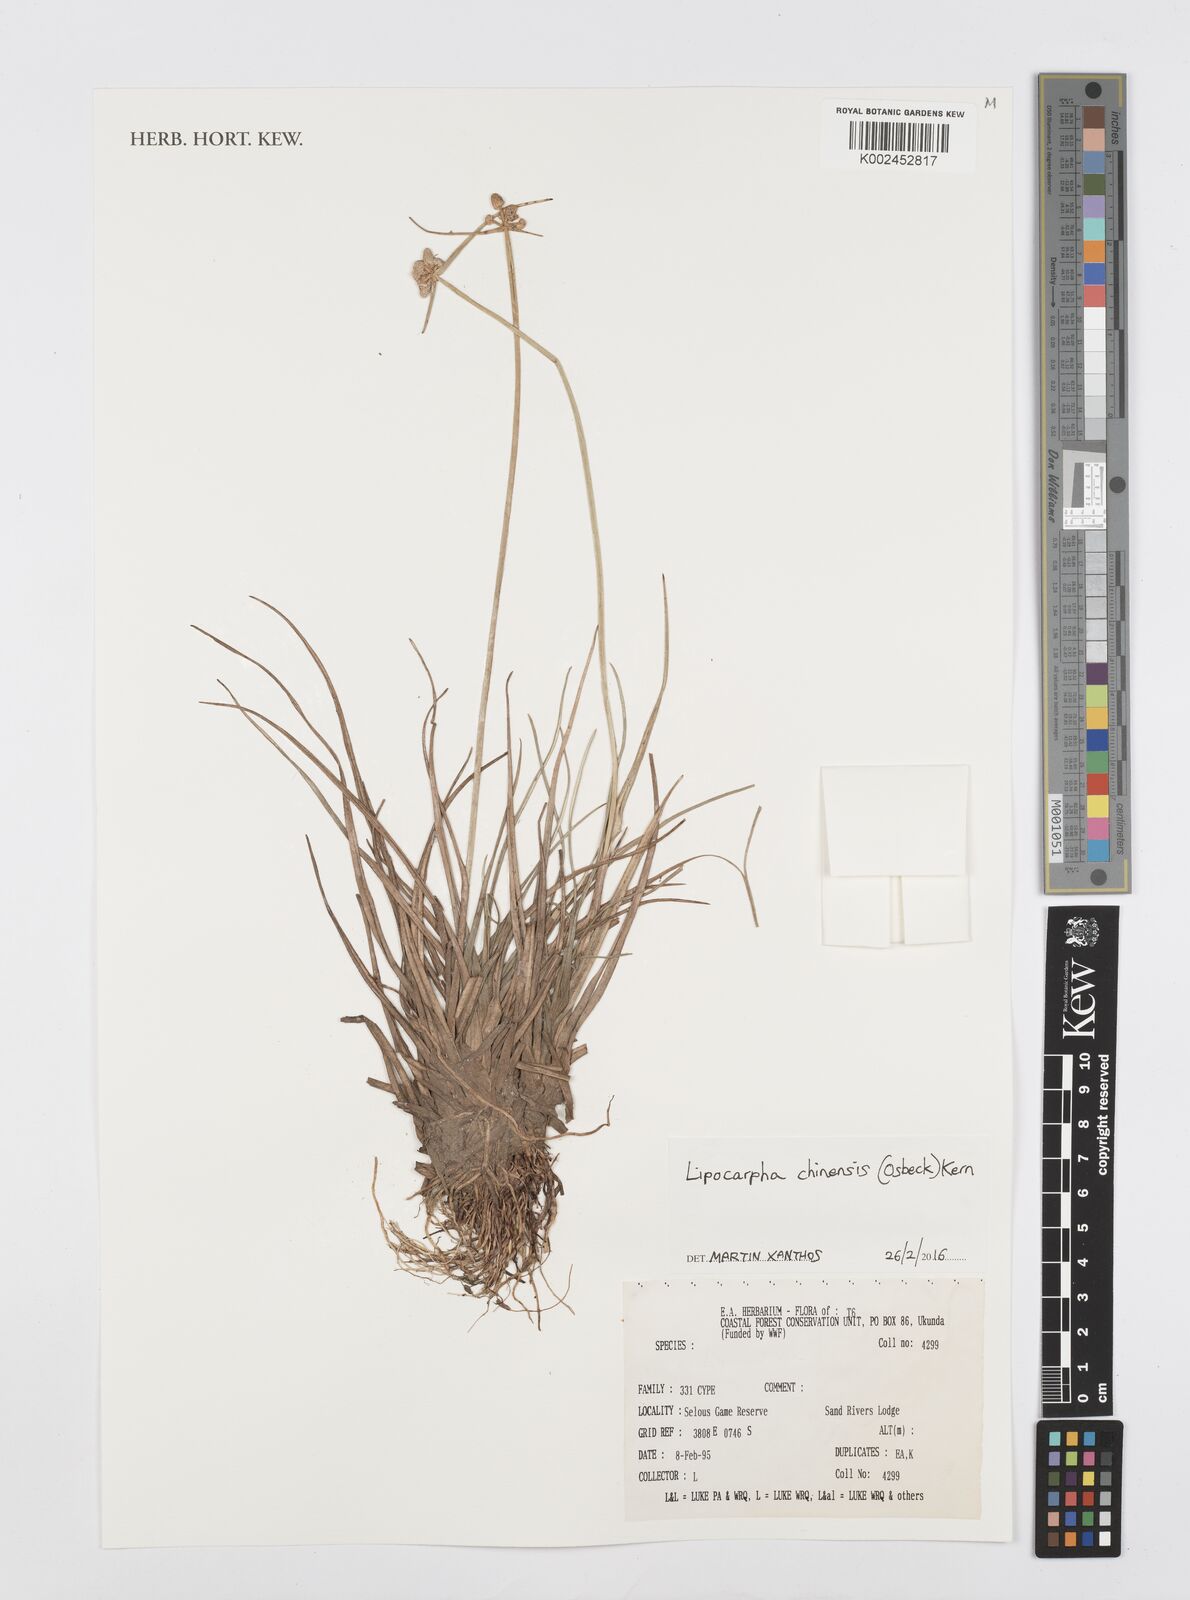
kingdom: Plantae
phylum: Tracheophyta
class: Liliopsida
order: Poales
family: Cyperaceae
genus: Cyperus
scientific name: Cyperus albescens
